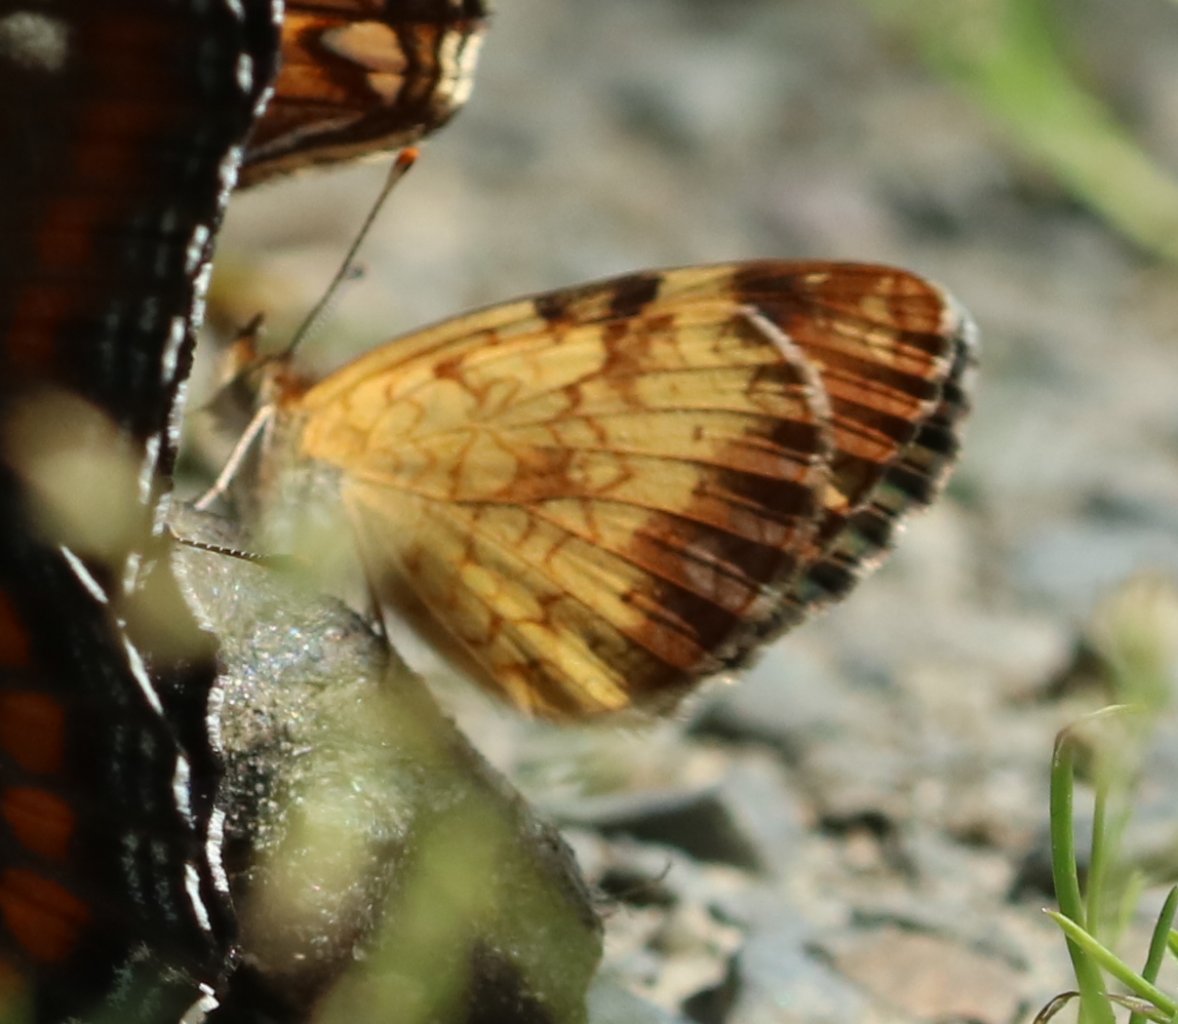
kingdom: Animalia
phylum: Arthropoda
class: Insecta
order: Lepidoptera
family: Nymphalidae
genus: Phyciodes
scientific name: Phyciodes tharos
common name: Northern Crescent
